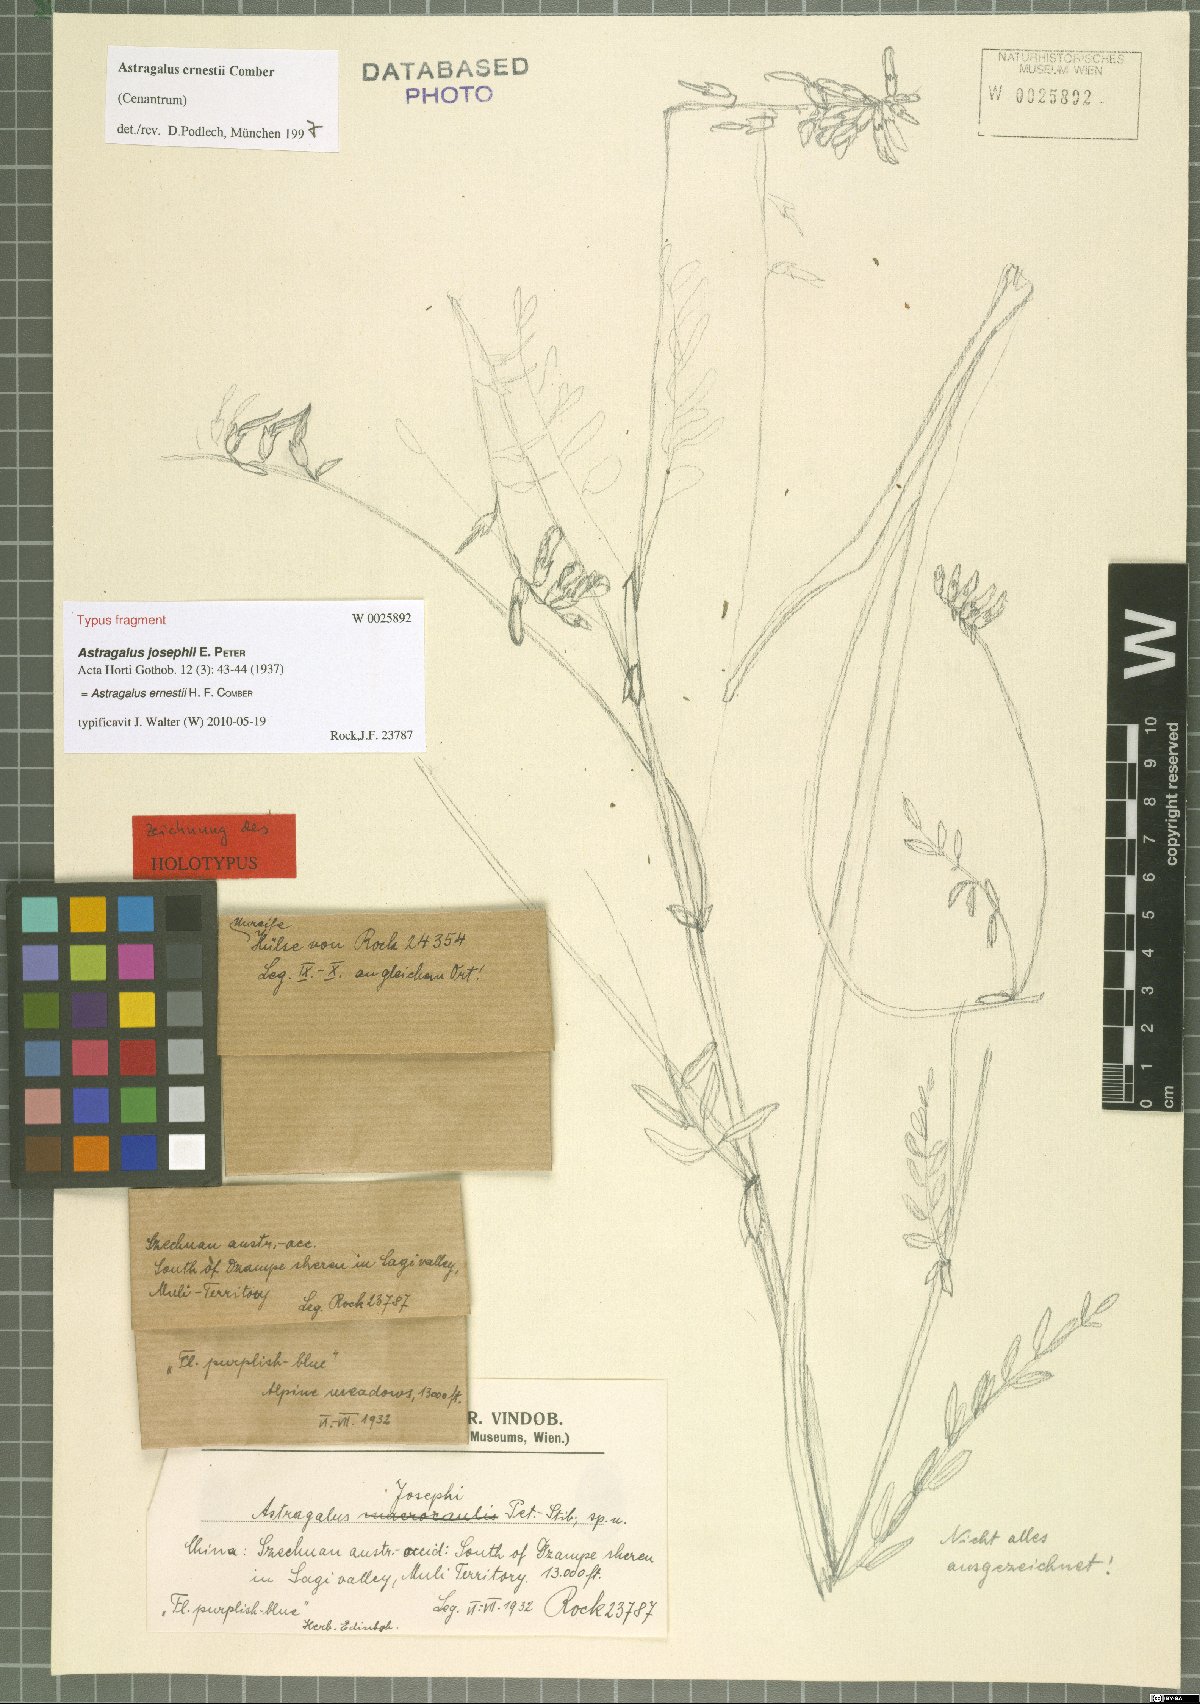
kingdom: Plantae
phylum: Tracheophyta
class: Magnoliopsida
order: Fabales
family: Fabaceae
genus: Astragalus
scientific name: Astragalus ernestii
